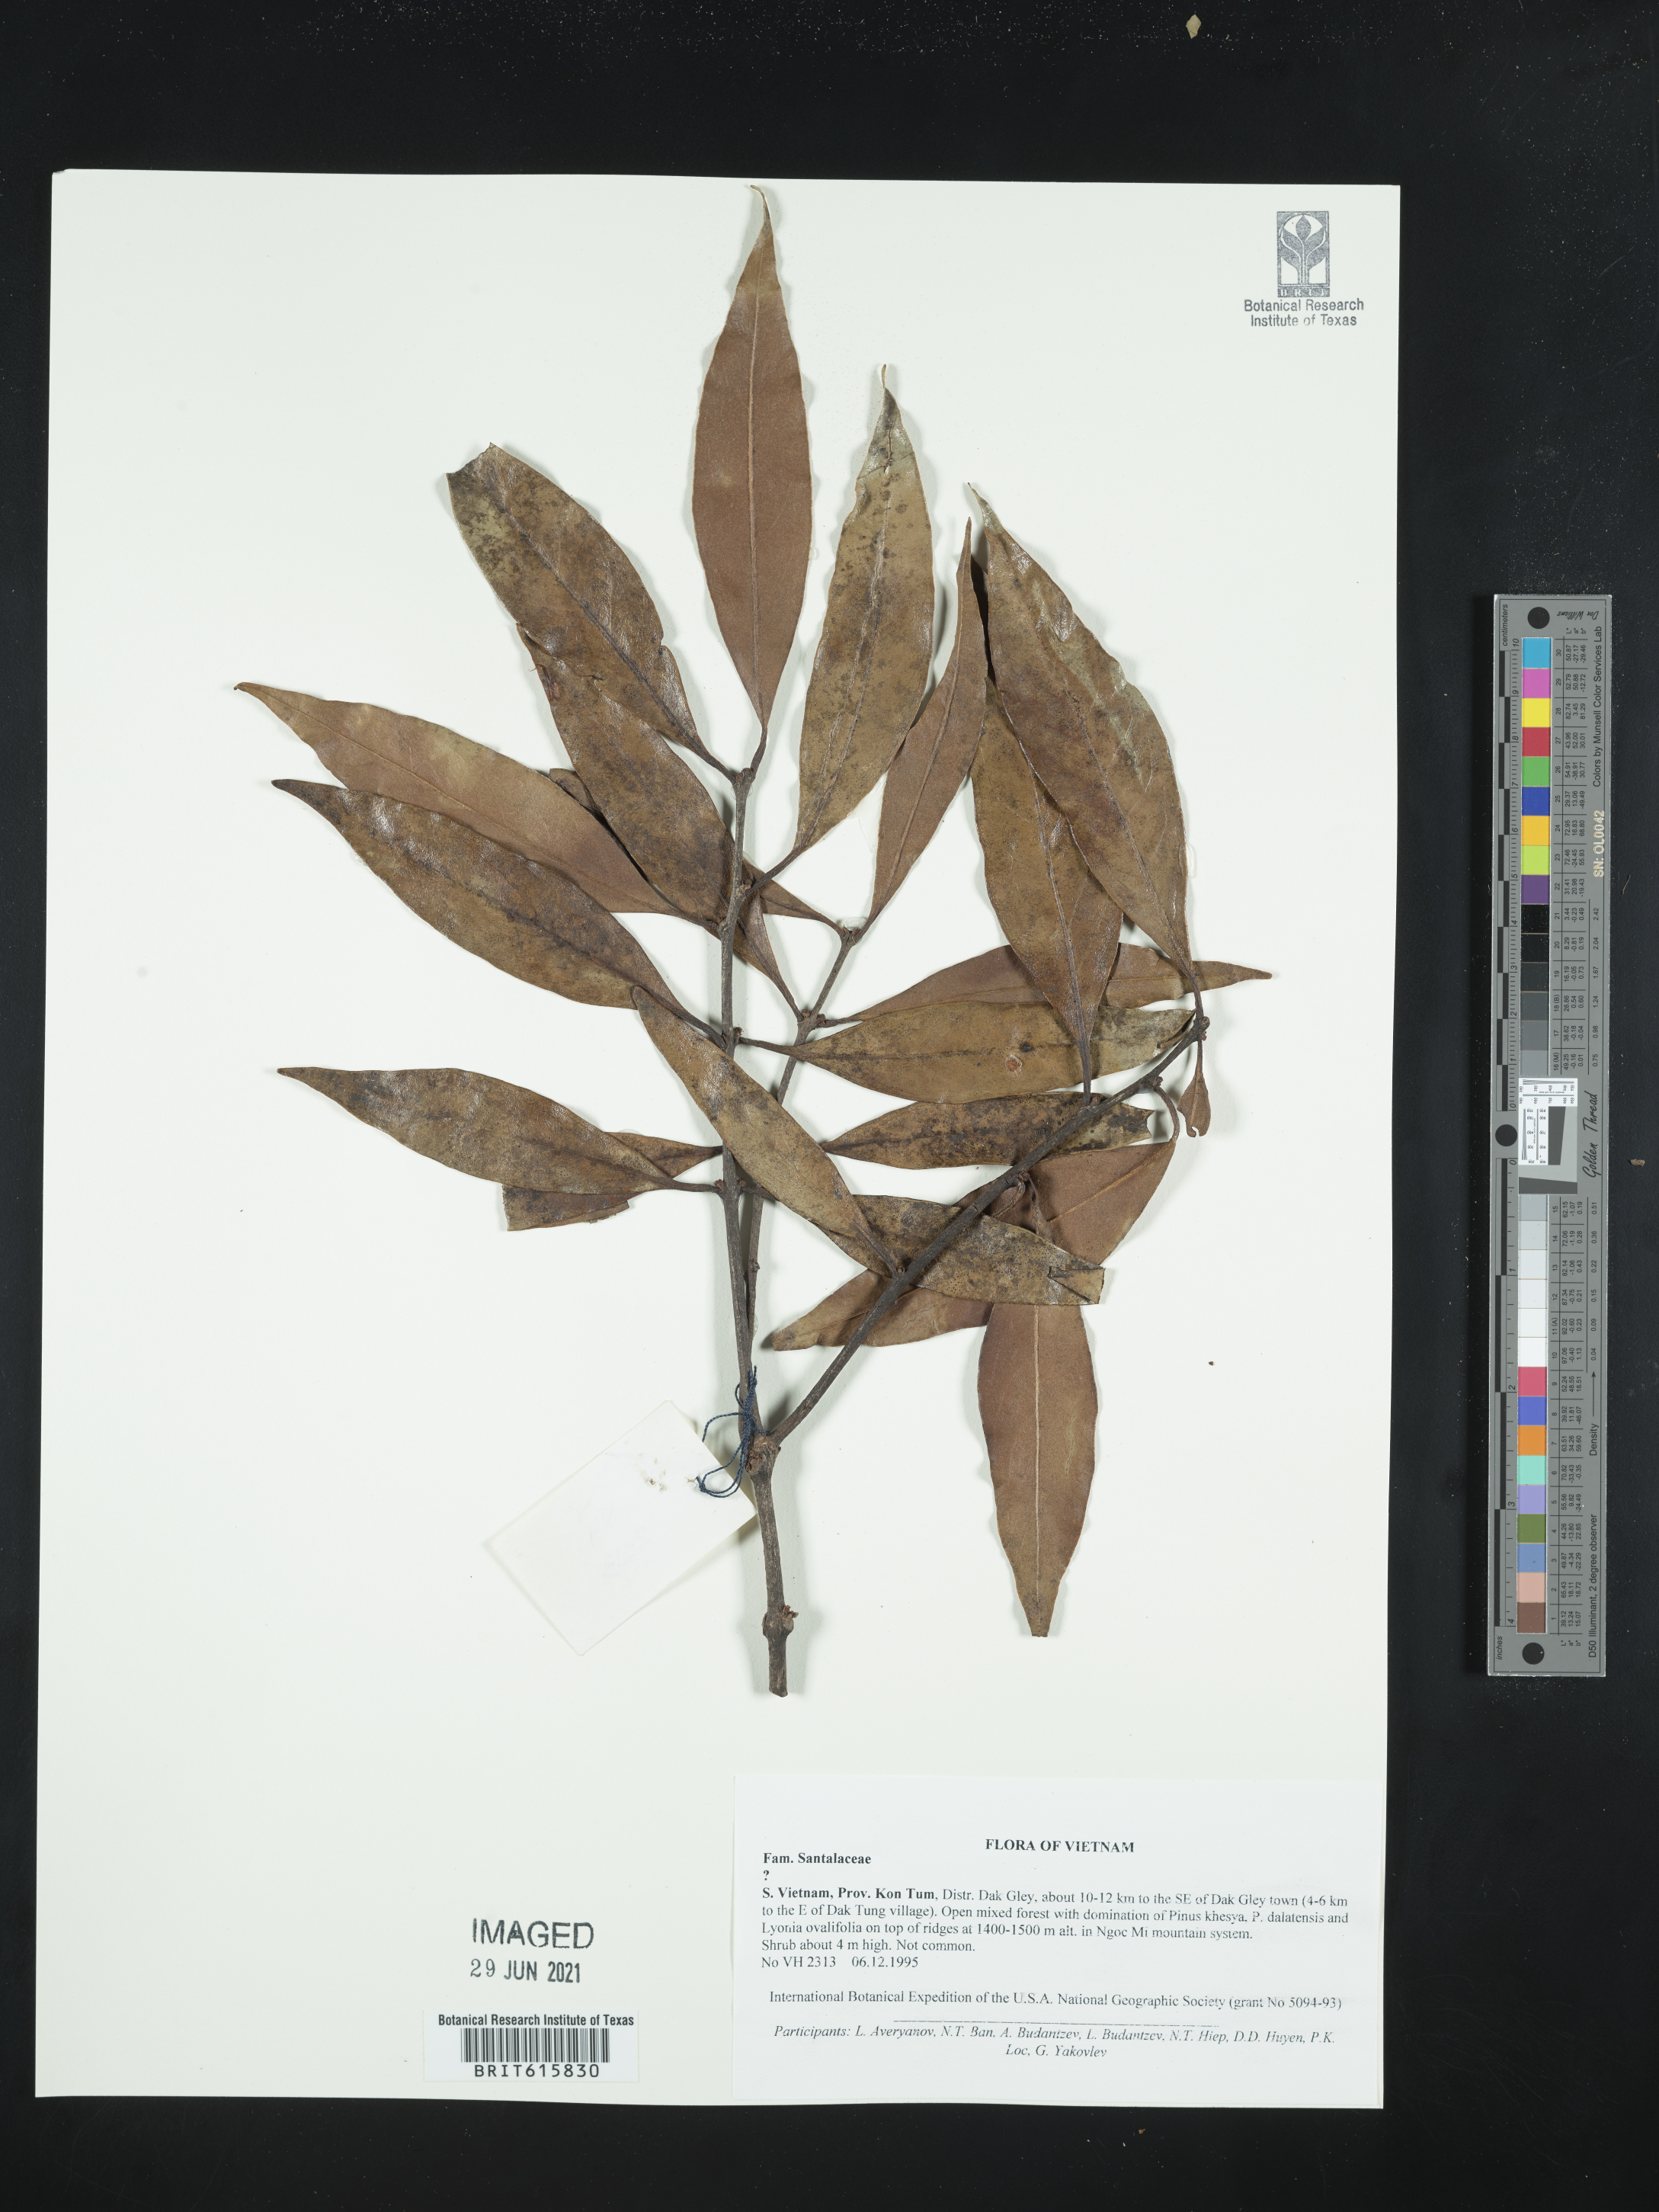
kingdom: Plantae
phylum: Tracheophyta
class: Magnoliopsida
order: Santalales
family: Santalaceae
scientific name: Santalaceae
